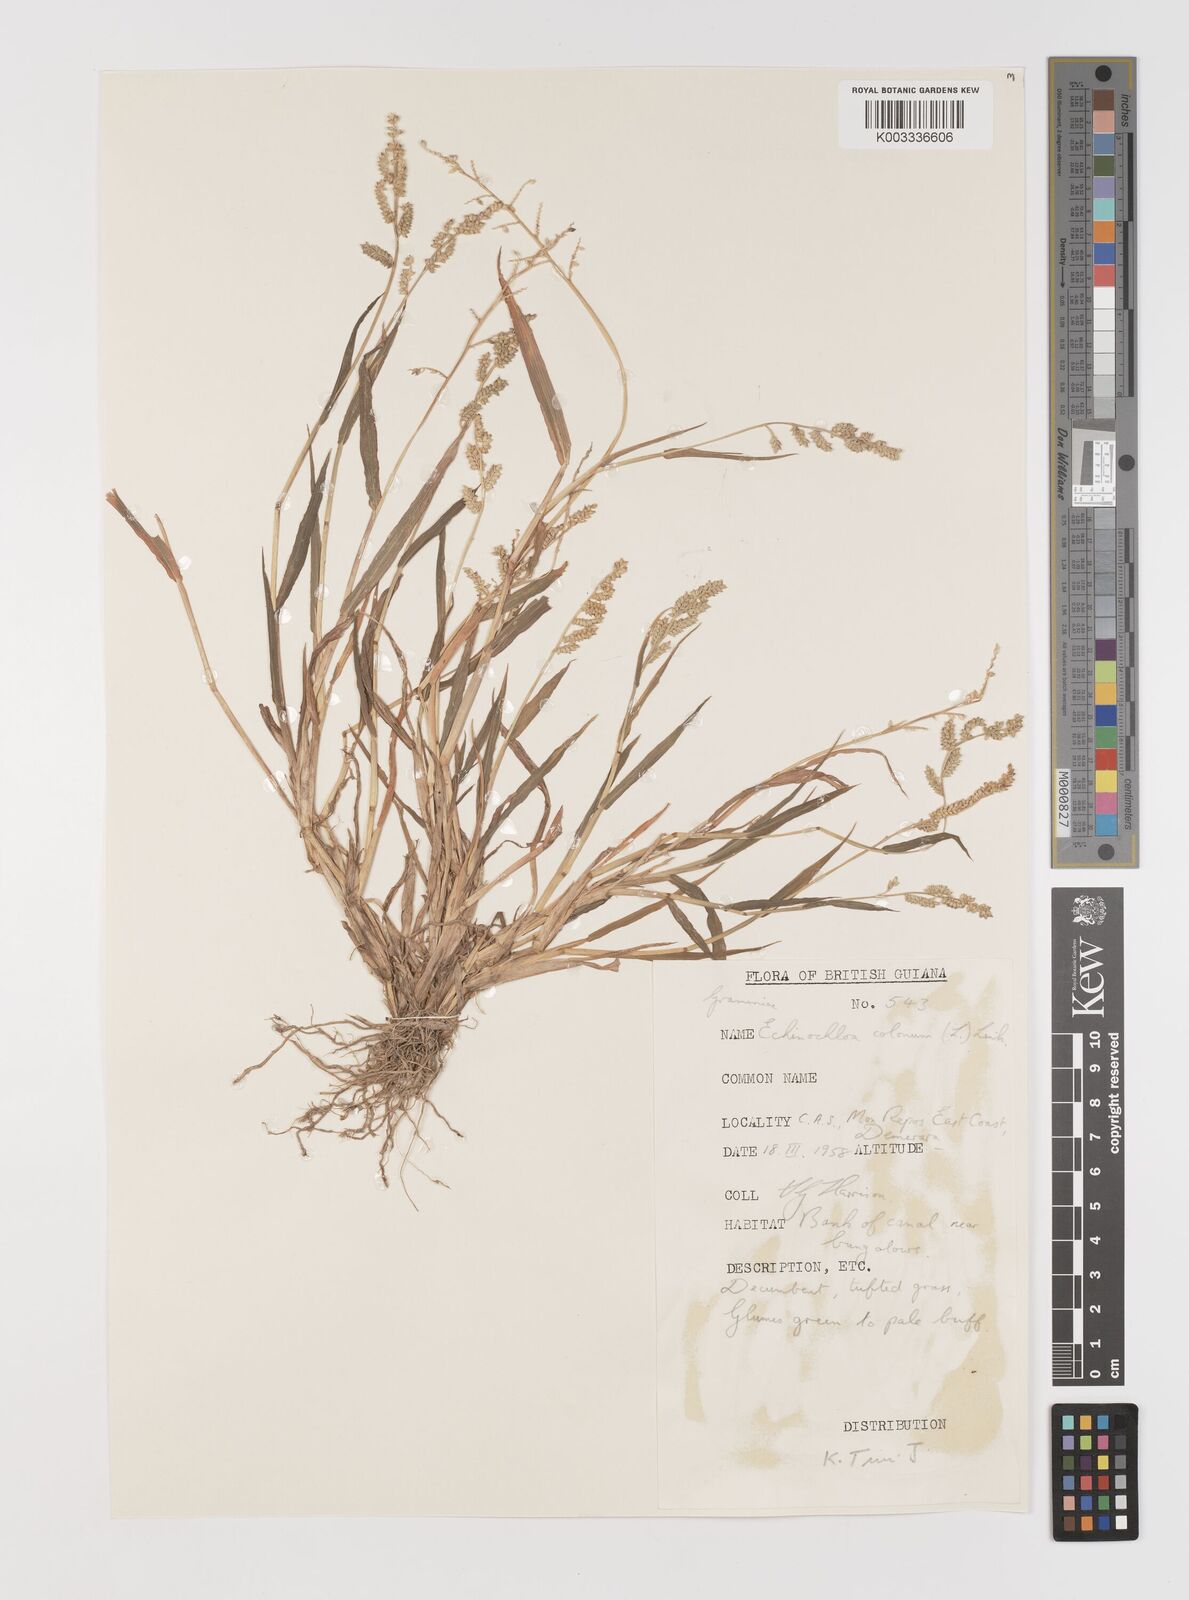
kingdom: Plantae
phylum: Tracheophyta
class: Liliopsida
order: Poales
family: Poaceae
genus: Echinochloa
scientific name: Echinochloa colonum
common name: Jungle rice
